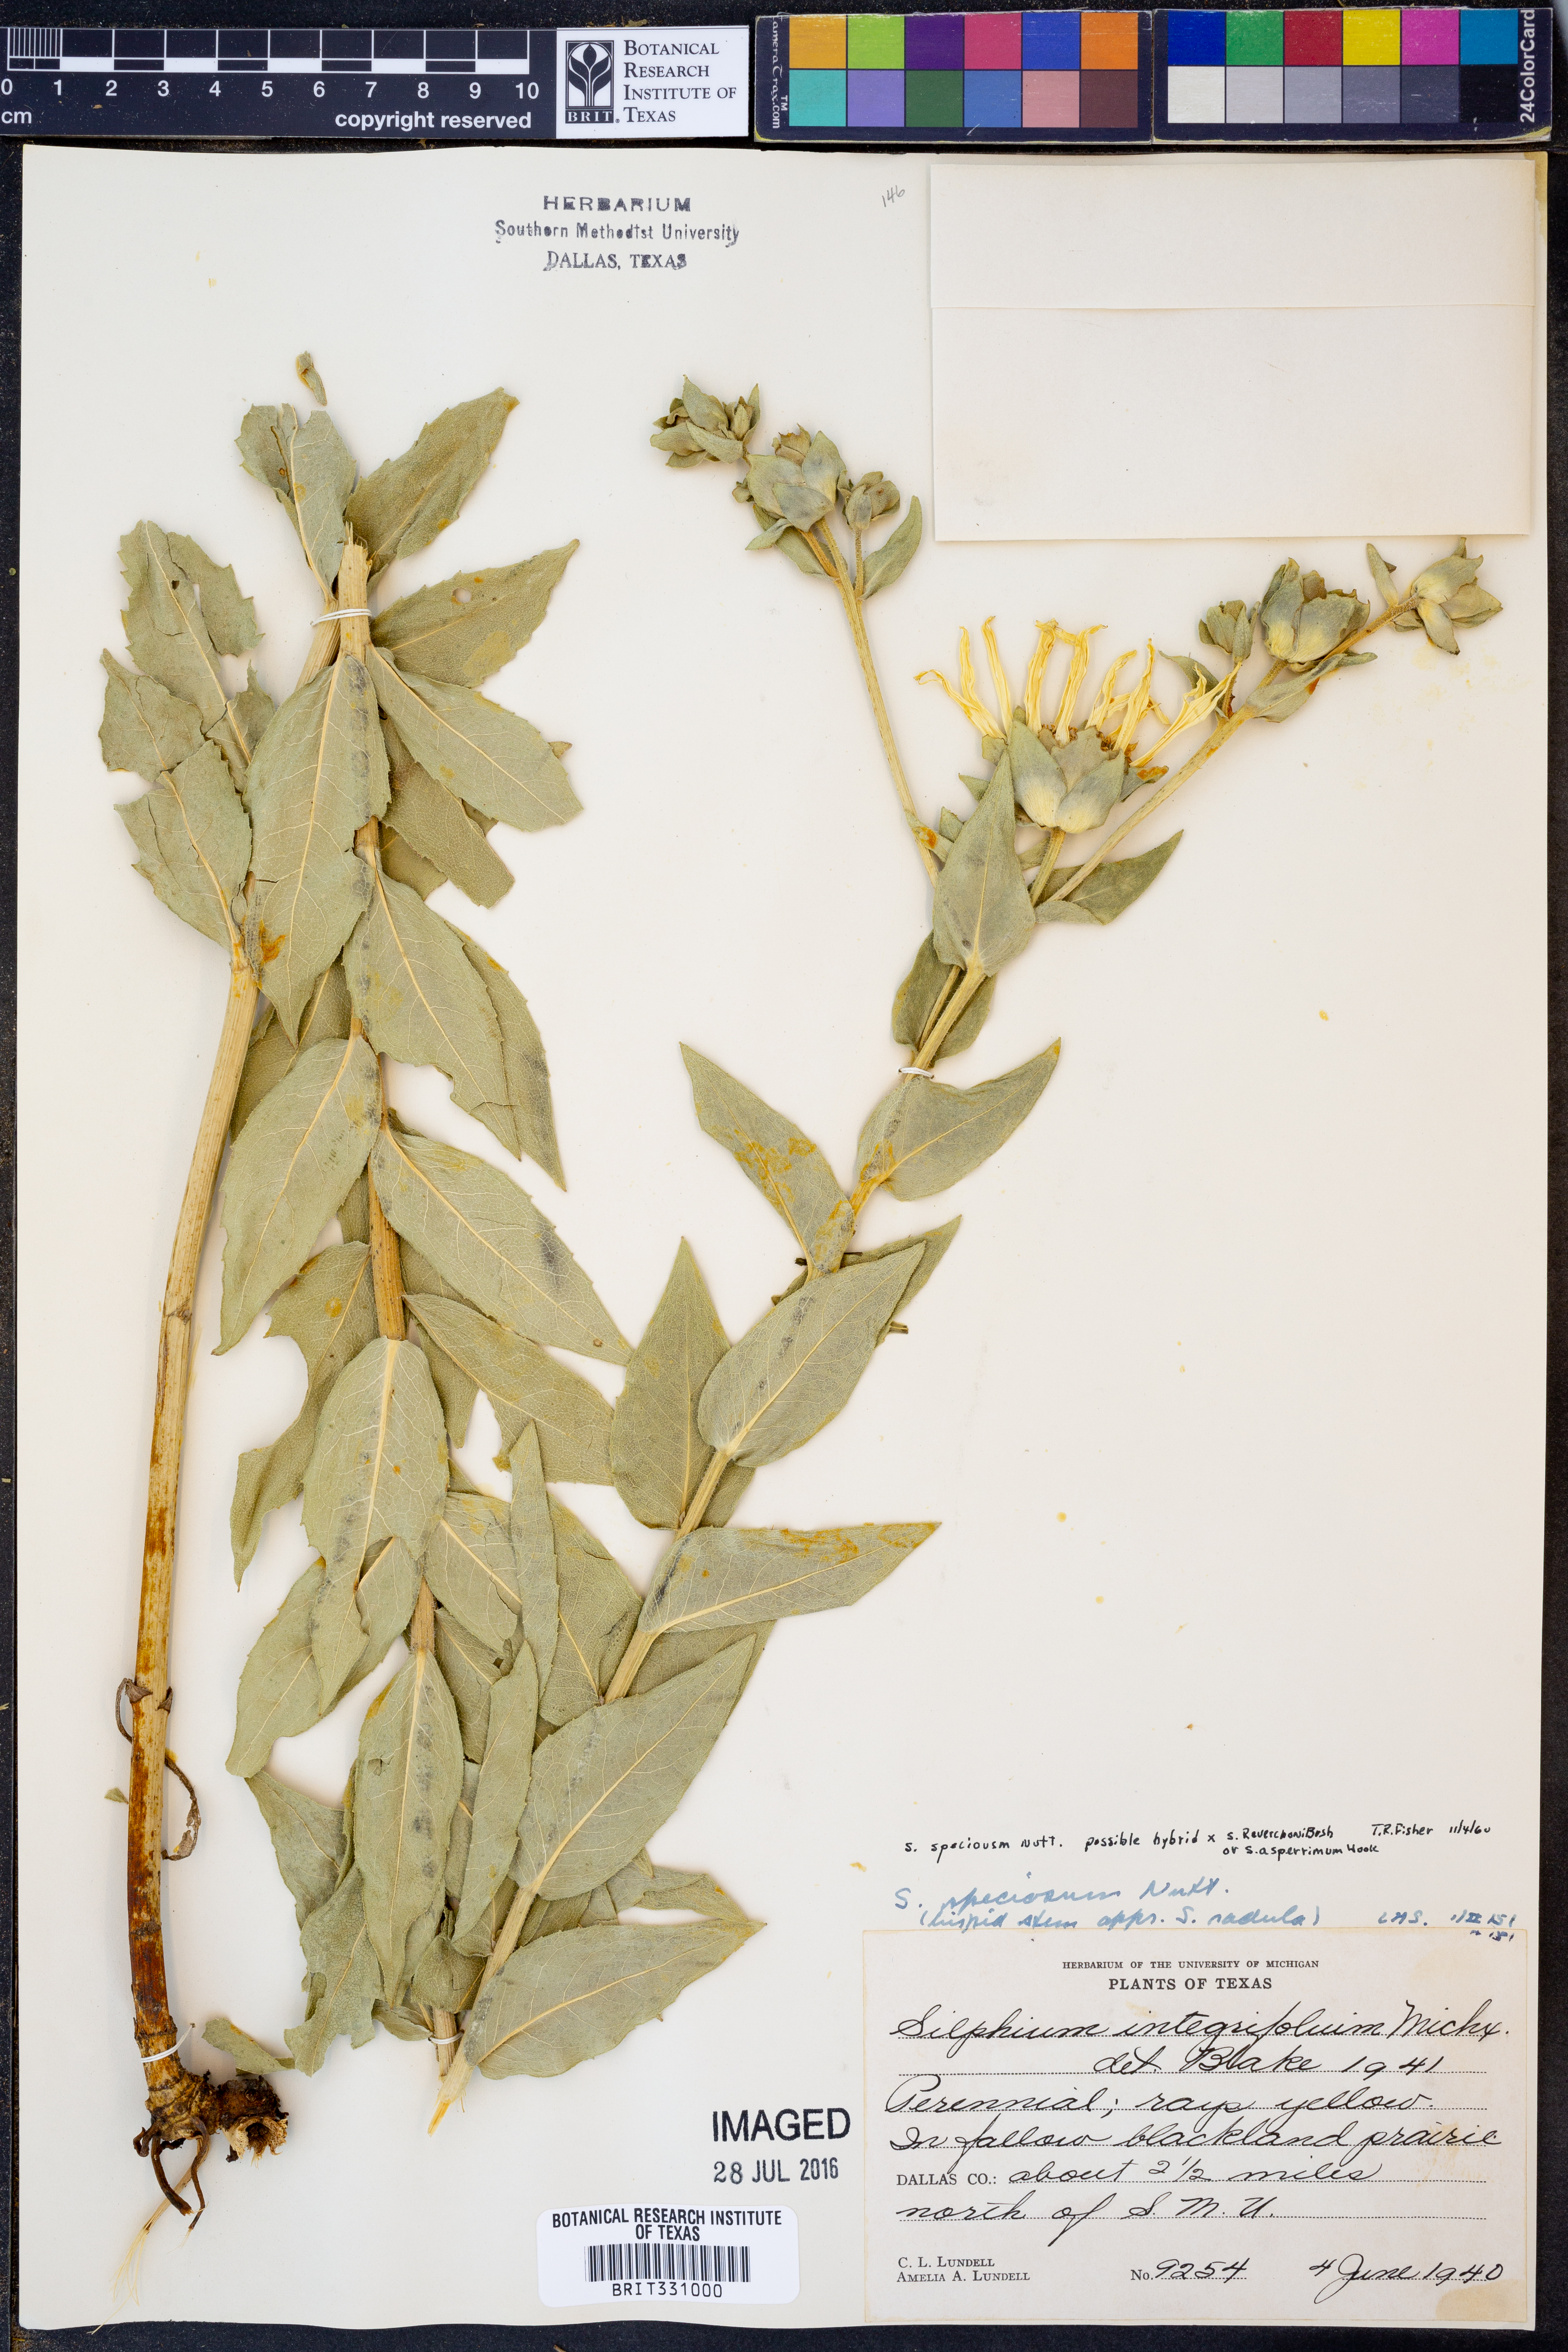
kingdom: Plantae
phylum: Tracheophyta
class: Magnoliopsida
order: Asterales
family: Asteraceae
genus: Silphium
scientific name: Silphium integrifolium
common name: Whole-leaf rosinweed
